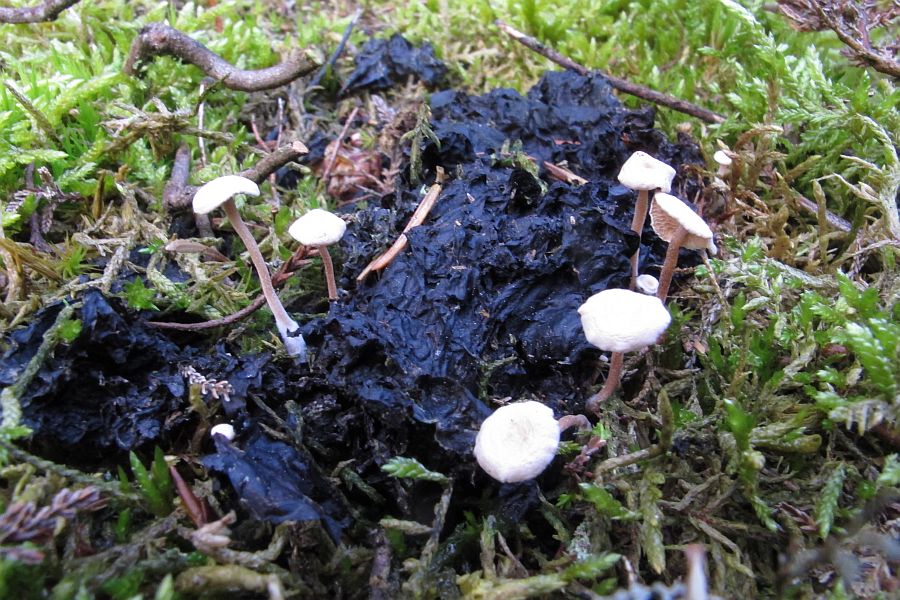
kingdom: Fungi
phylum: Basidiomycota
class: Agaricomycetes
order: Agaricales
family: Tricholomataceae
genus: Collybia
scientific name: Collybia cirrhata
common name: silke-lighat
